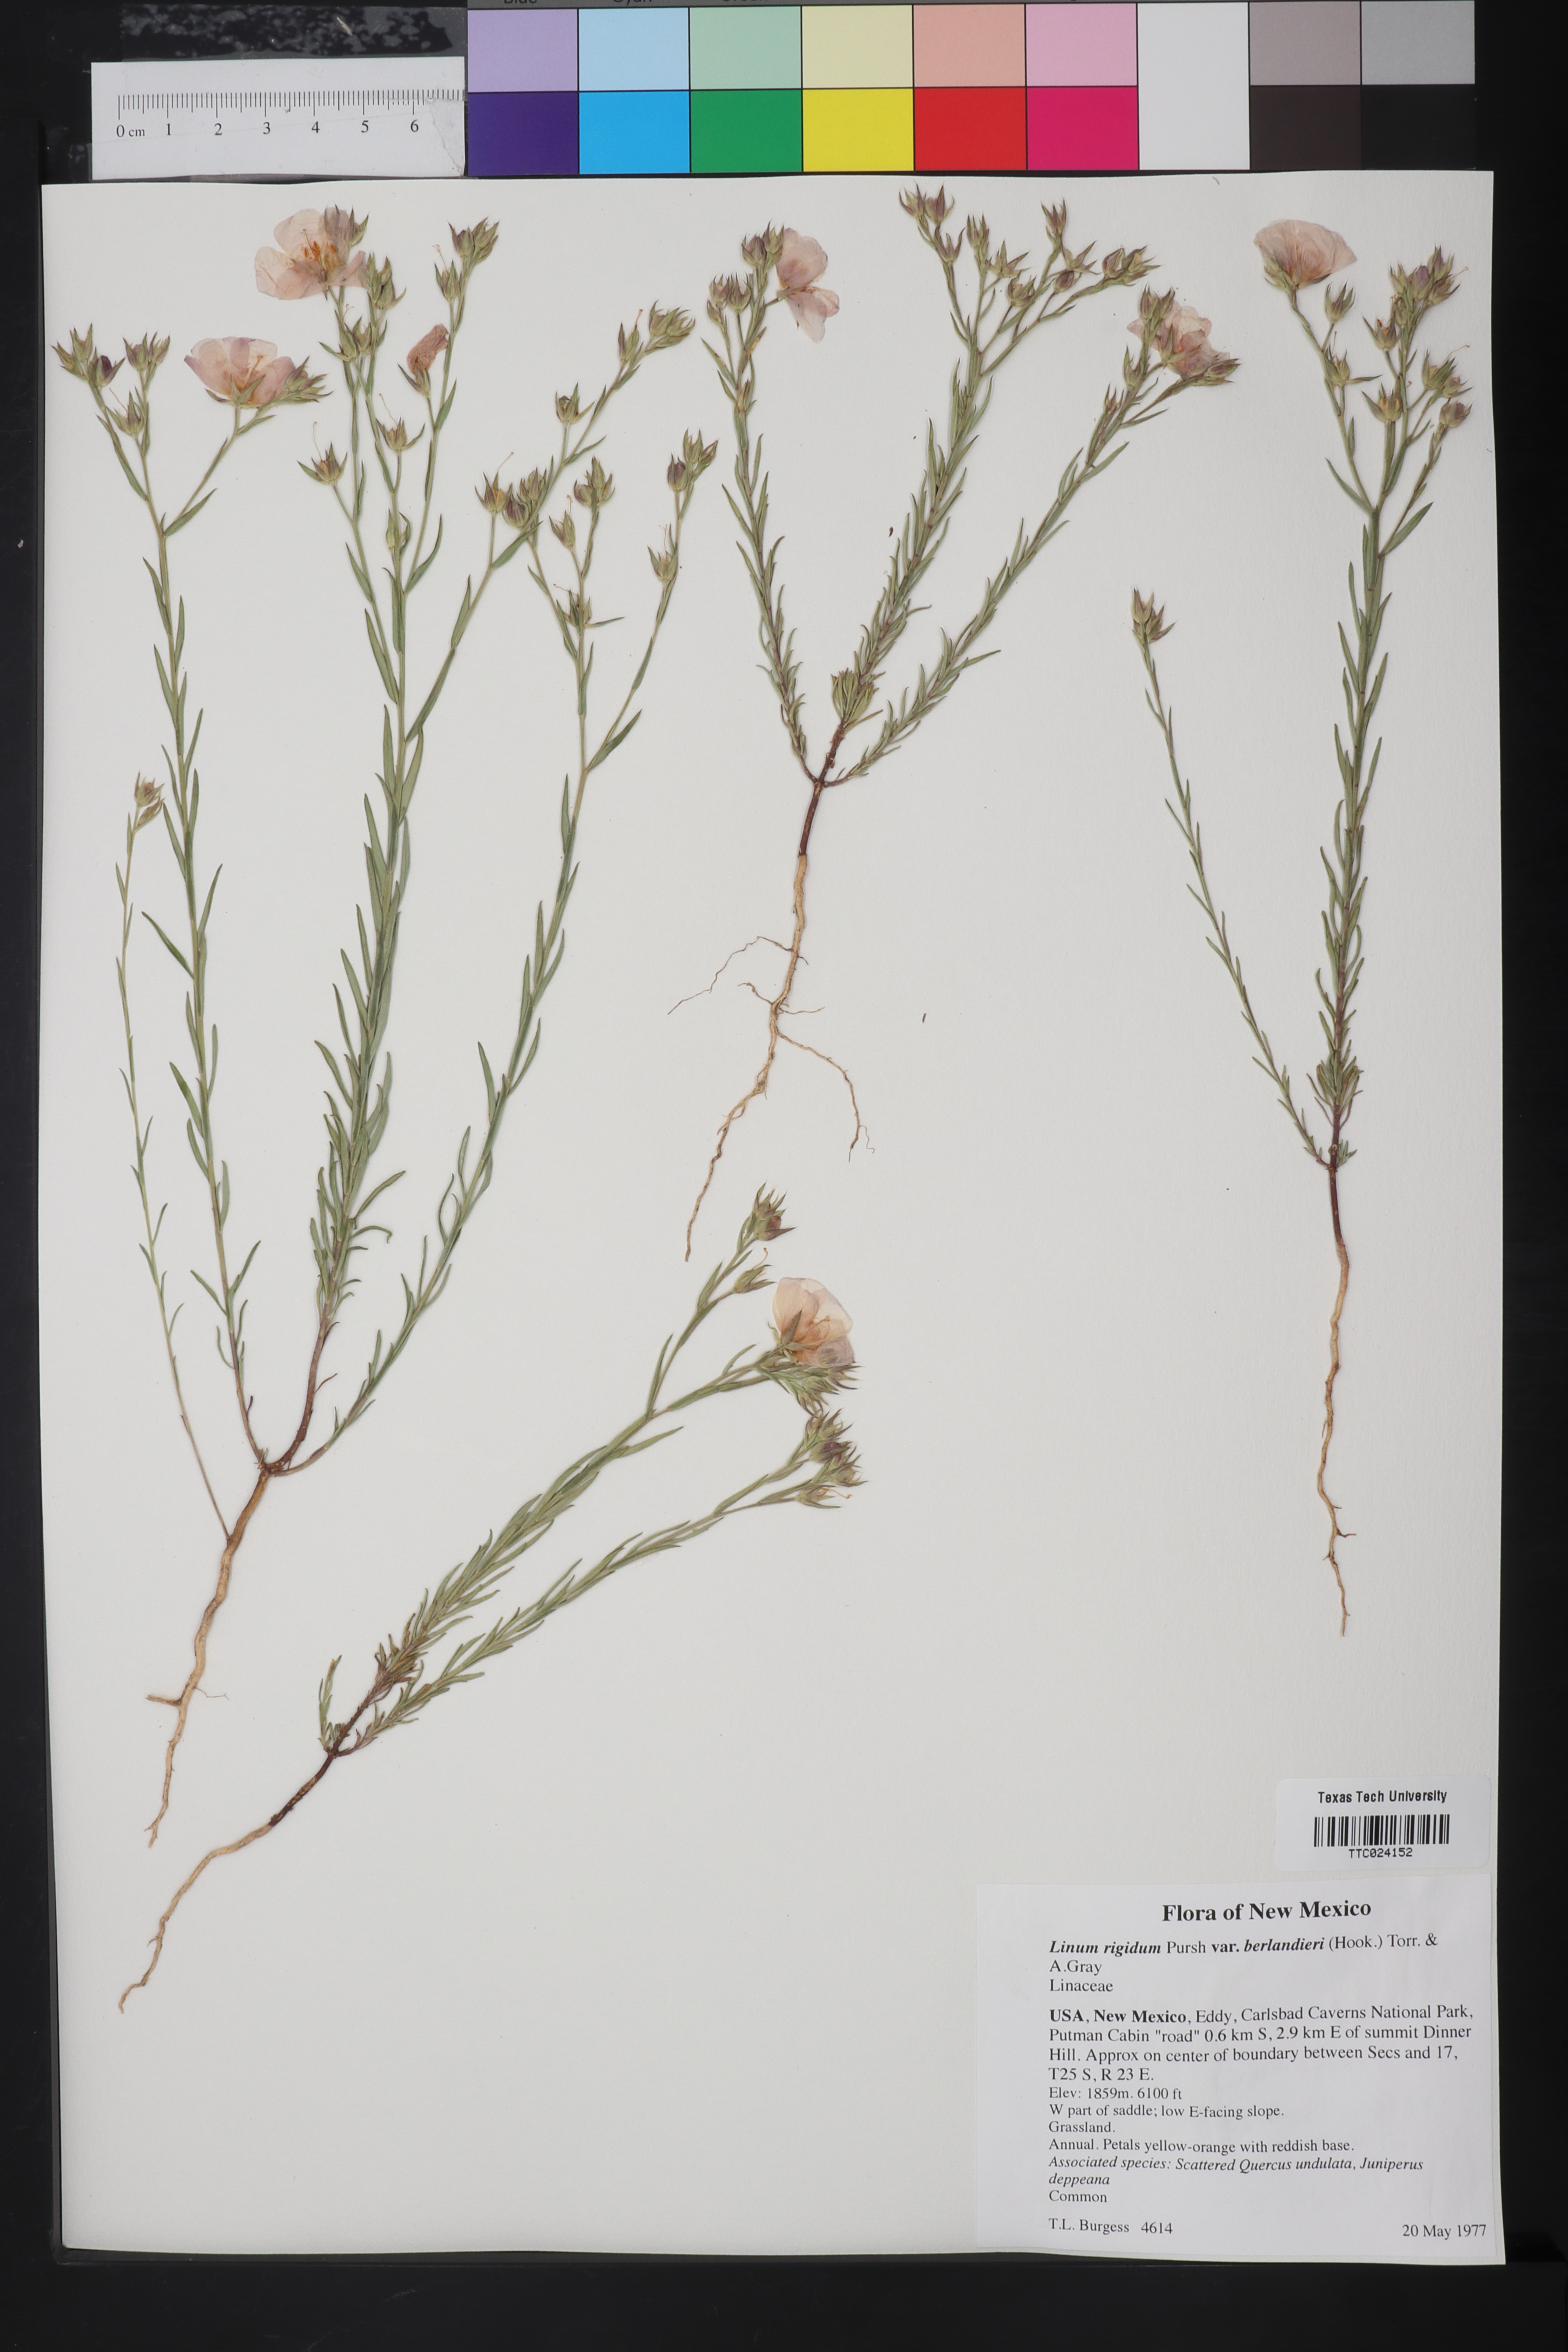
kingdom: Plantae
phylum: Tracheophyta
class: Magnoliopsida
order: Malpighiales
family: Linaceae
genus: Linum
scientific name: Linum berlandieri
